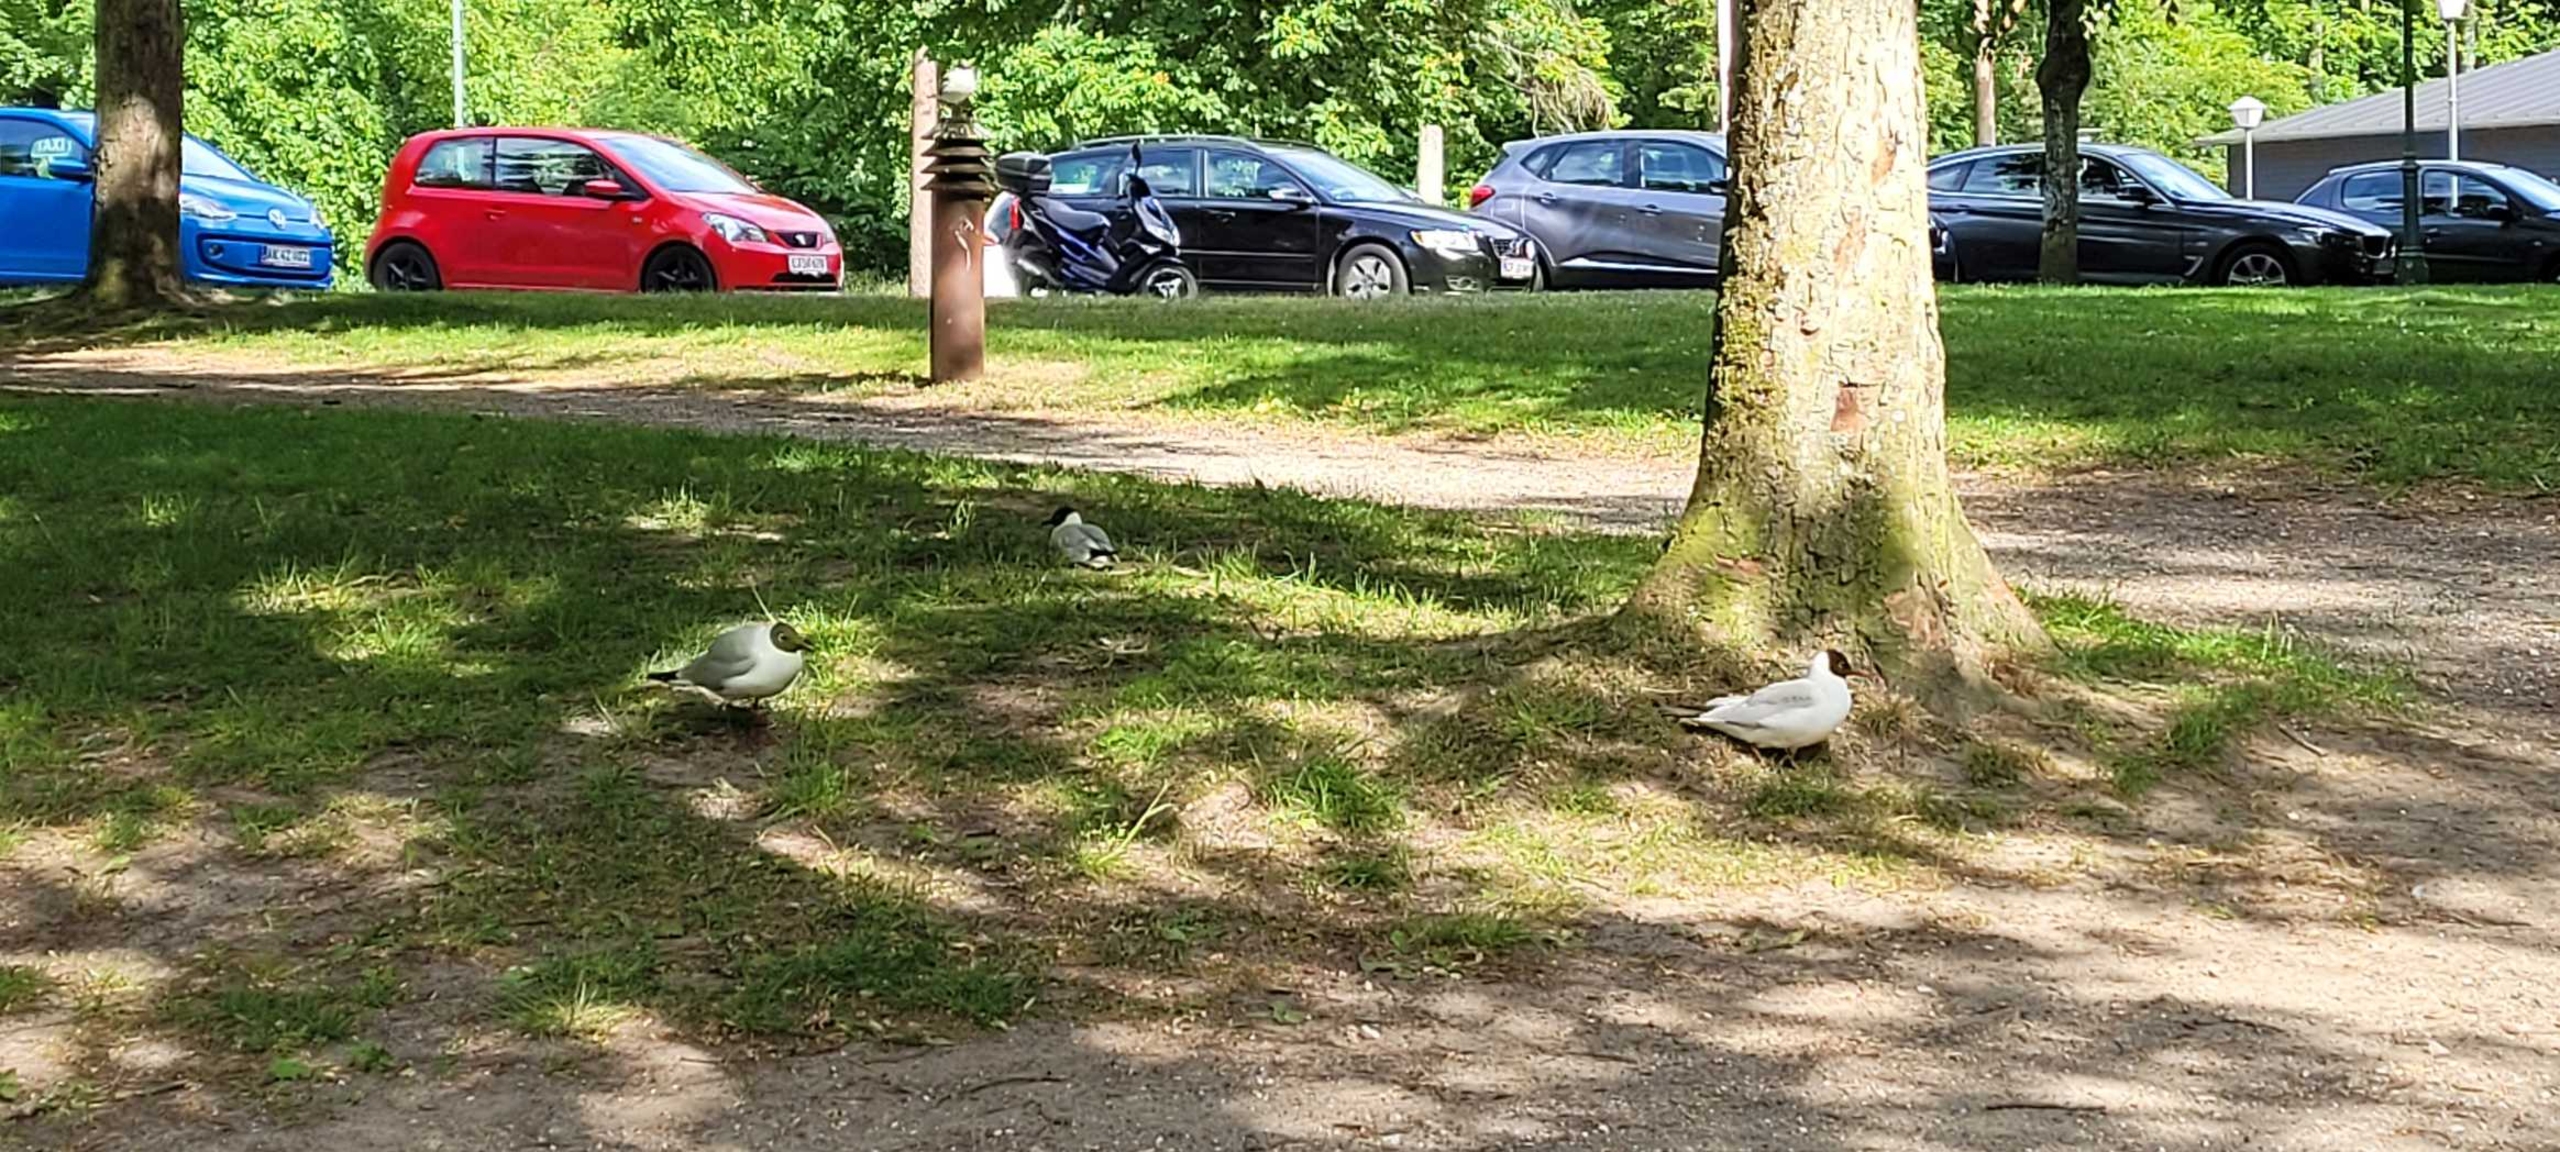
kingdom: Animalia
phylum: Chordata
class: Aves
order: Charadriiformes
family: Laridae
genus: Chroicocephalus
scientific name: Chroicocephalus ridibundus
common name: Hættemåge
